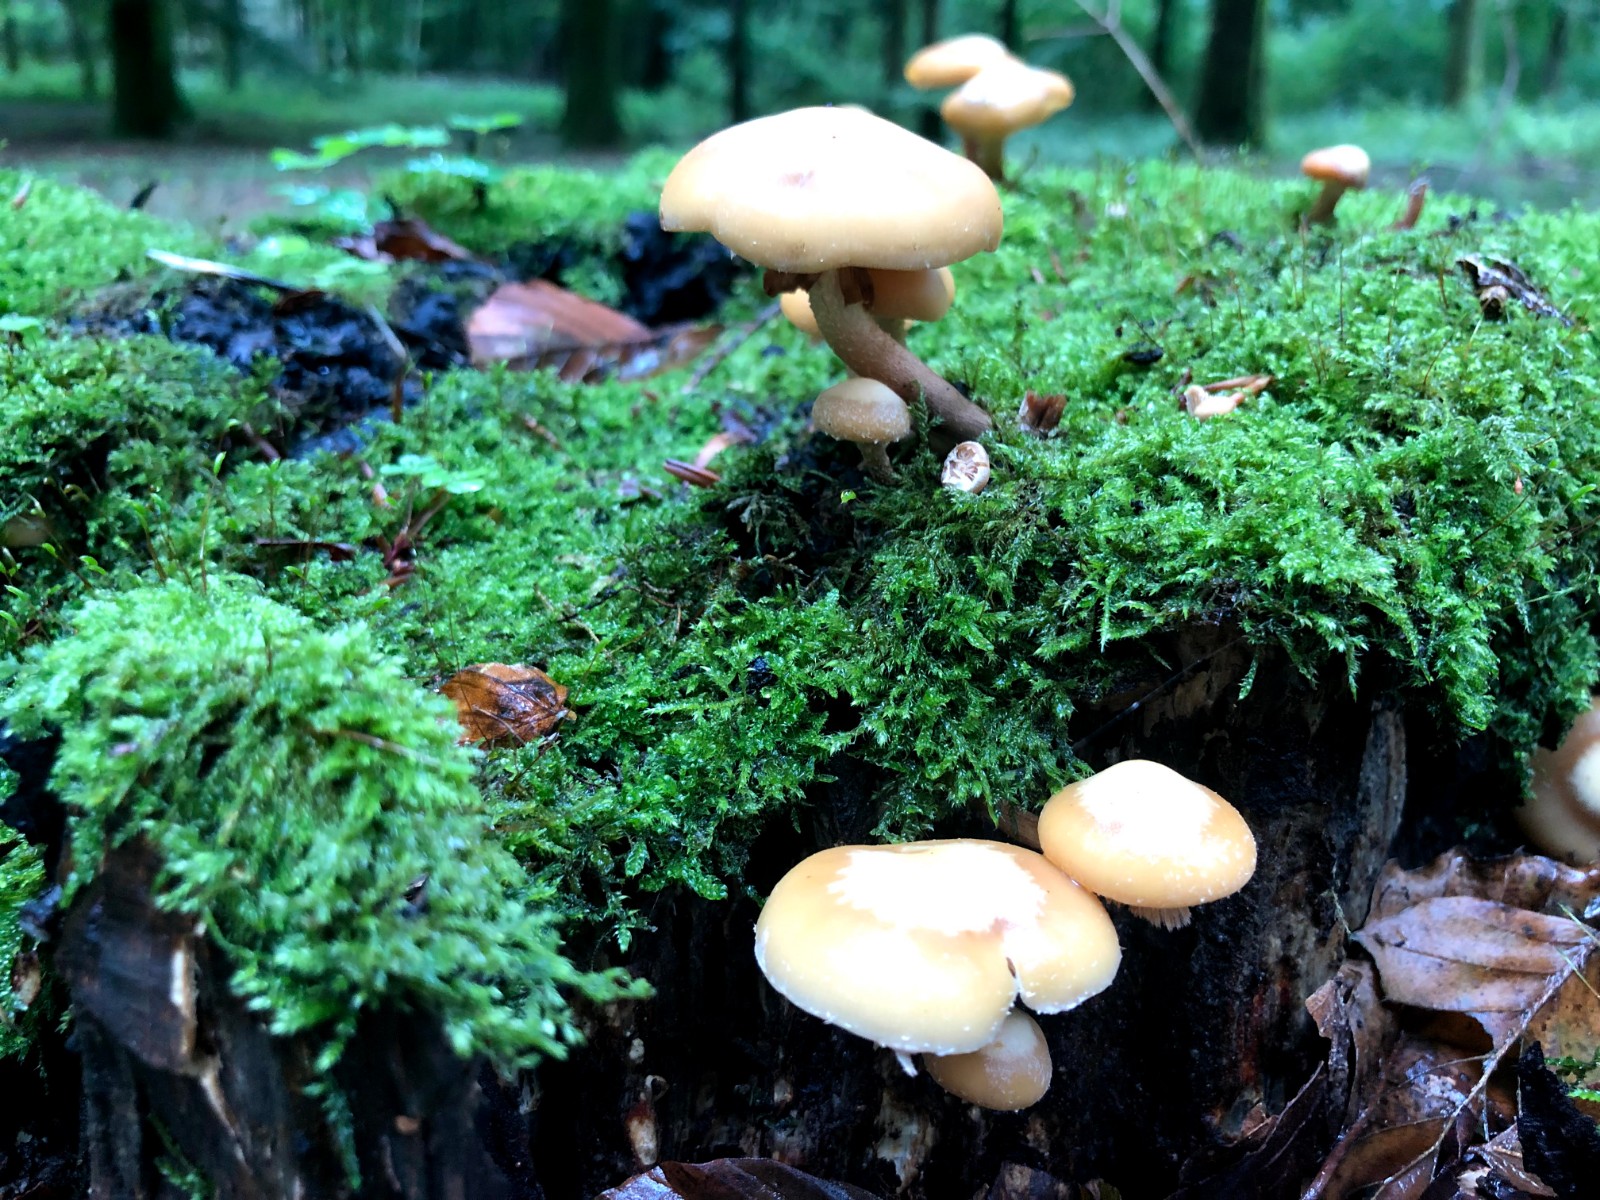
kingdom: Fungi
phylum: Basidiomycota
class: Agaricomycetes
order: Agaricales
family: Strophariaceae
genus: Kuehneromyces
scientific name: Kuehneromyces mutabilis
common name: foranderlig skælhat
